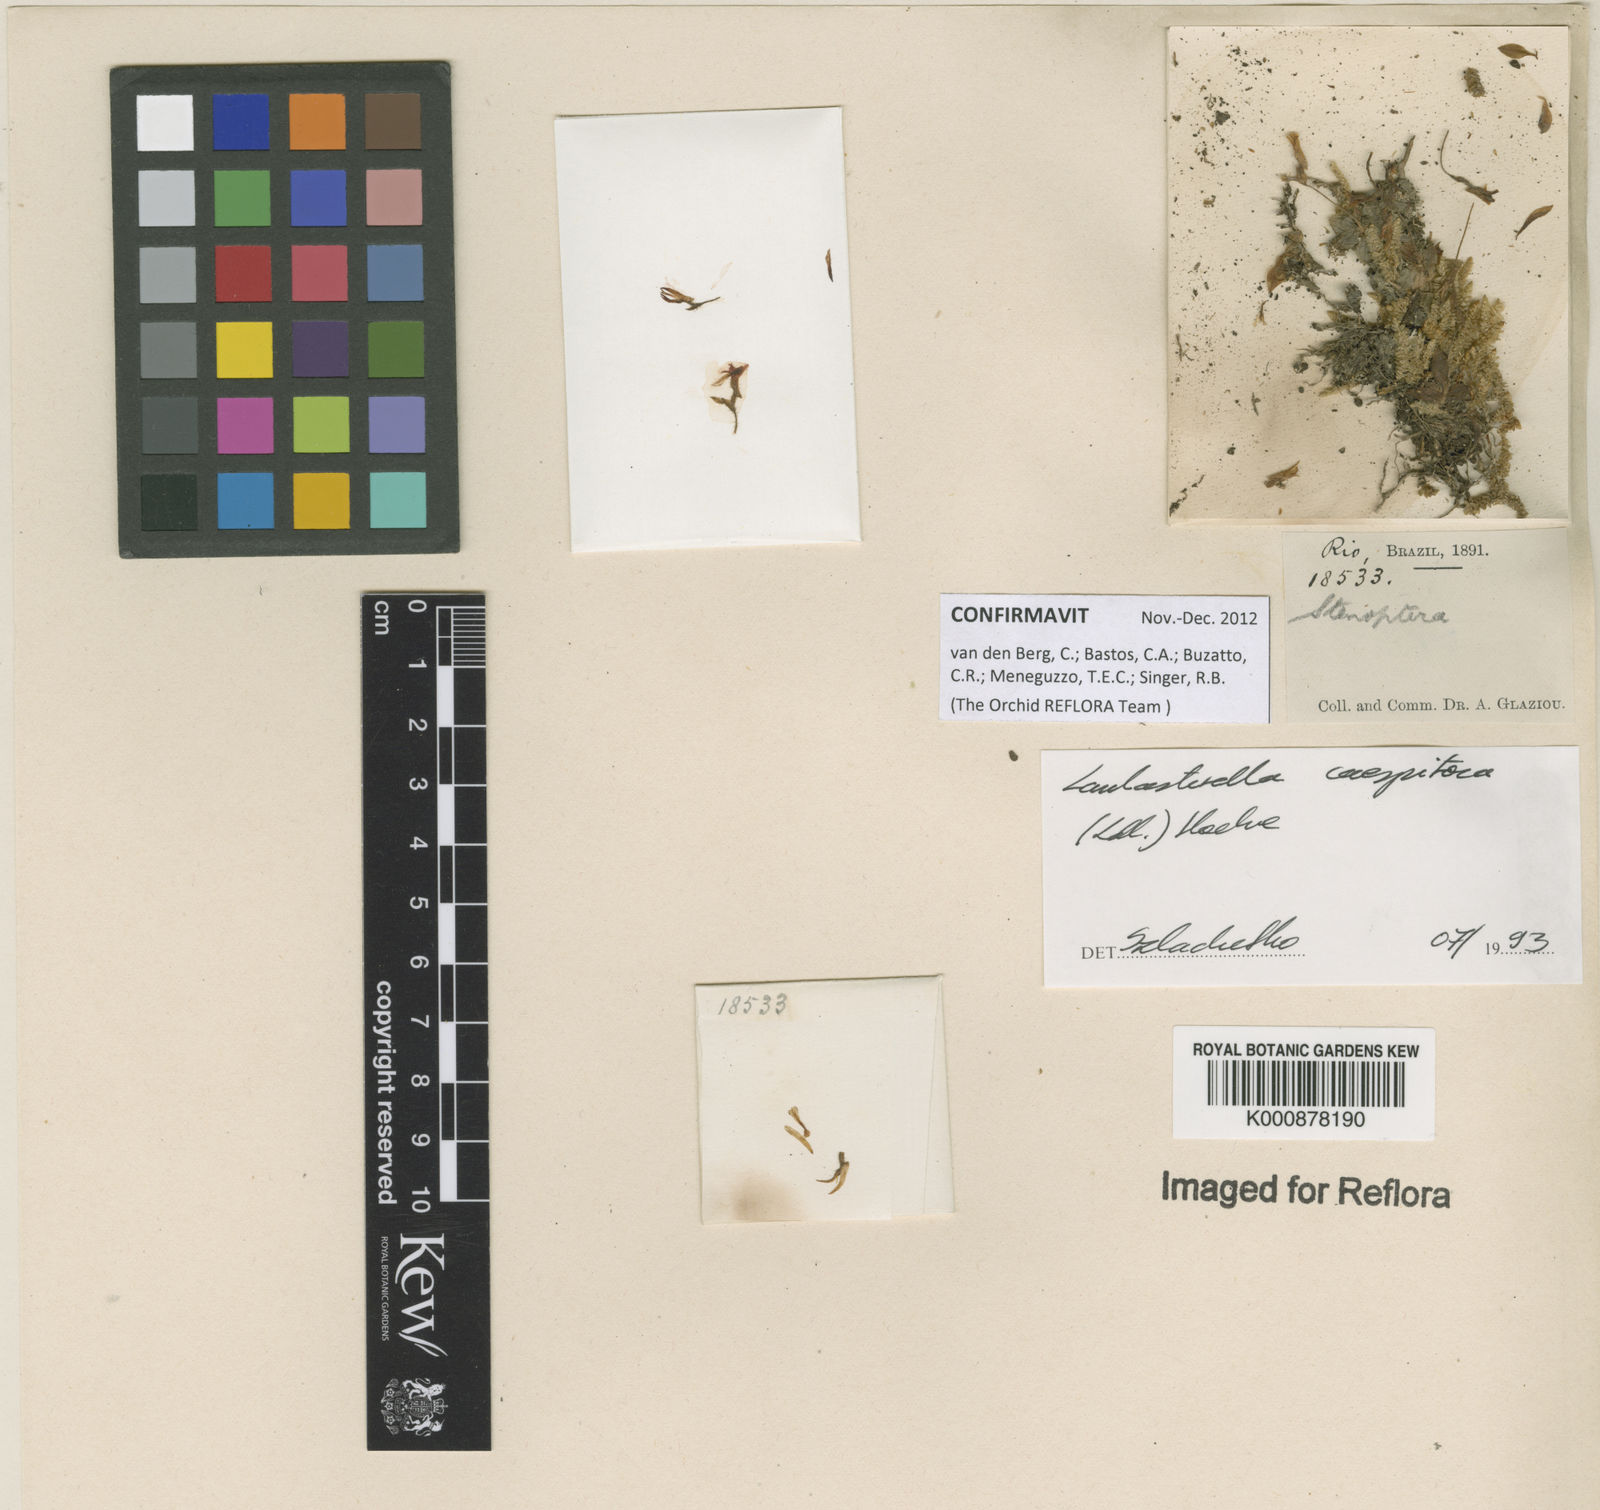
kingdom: Plantae
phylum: Tracheophyta
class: Liliopsida
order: Asparagales
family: Orchidaceae
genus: Lankesterella
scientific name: Lankesterella caespitosa
